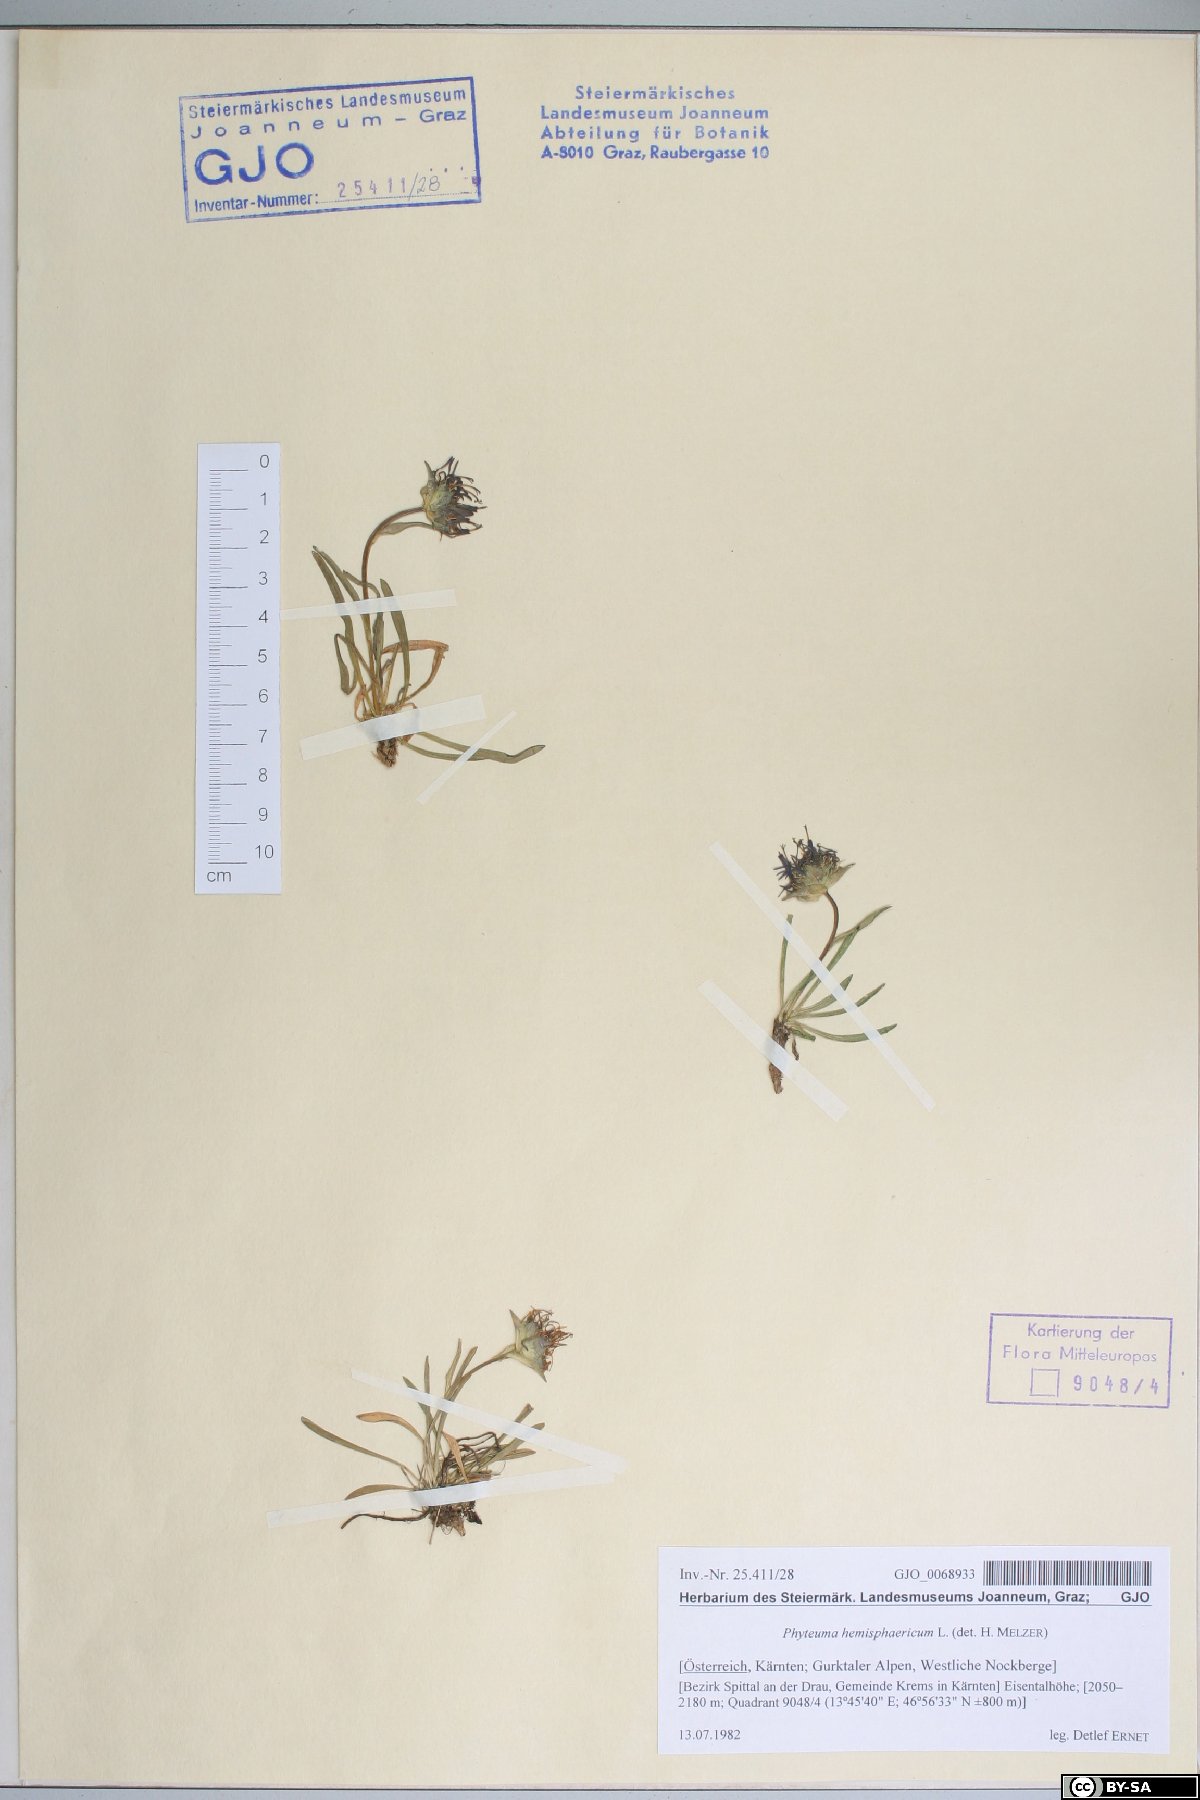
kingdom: Plantae
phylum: Tracheophyta
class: Magnoliopsida
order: Asterales
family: Campanulaceae
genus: Phyteuma
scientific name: Phyteuma hemisphaericum
